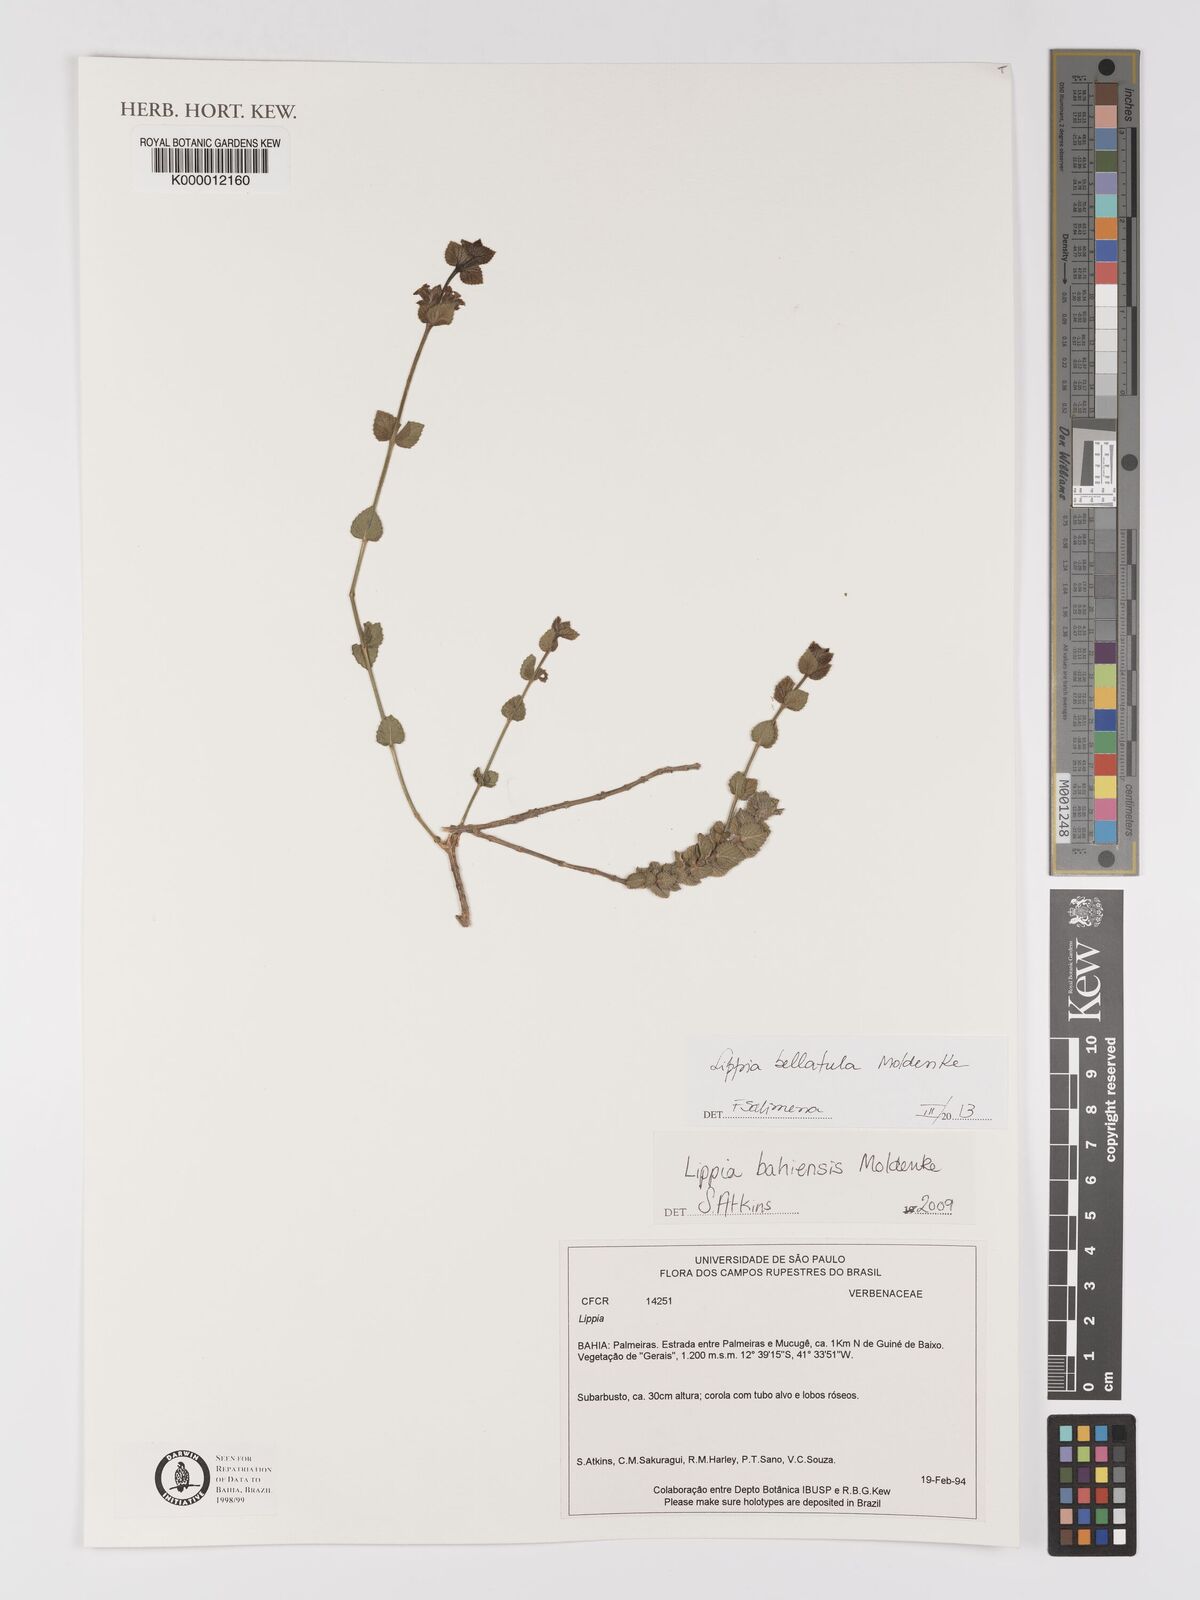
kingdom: Plantae
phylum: Tracheophyta
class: Magnoliopsida
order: Lamiales
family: Verbenaceae
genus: Lippia
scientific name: Lippia
